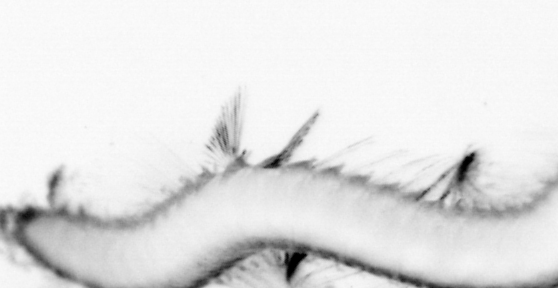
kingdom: Animalia
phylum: Annelida
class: Polychaeta
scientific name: Polychaeta
